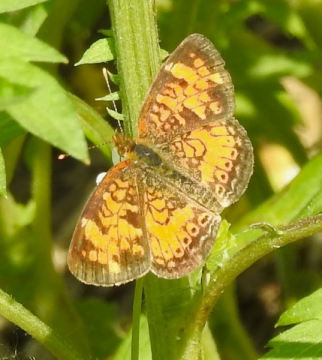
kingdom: Animalia
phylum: Arthropoda
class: Insecta
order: Lepidoptera
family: Nymphalidae
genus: Phyciodes
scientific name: Phyciodes tharos
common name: Northern Crescent
